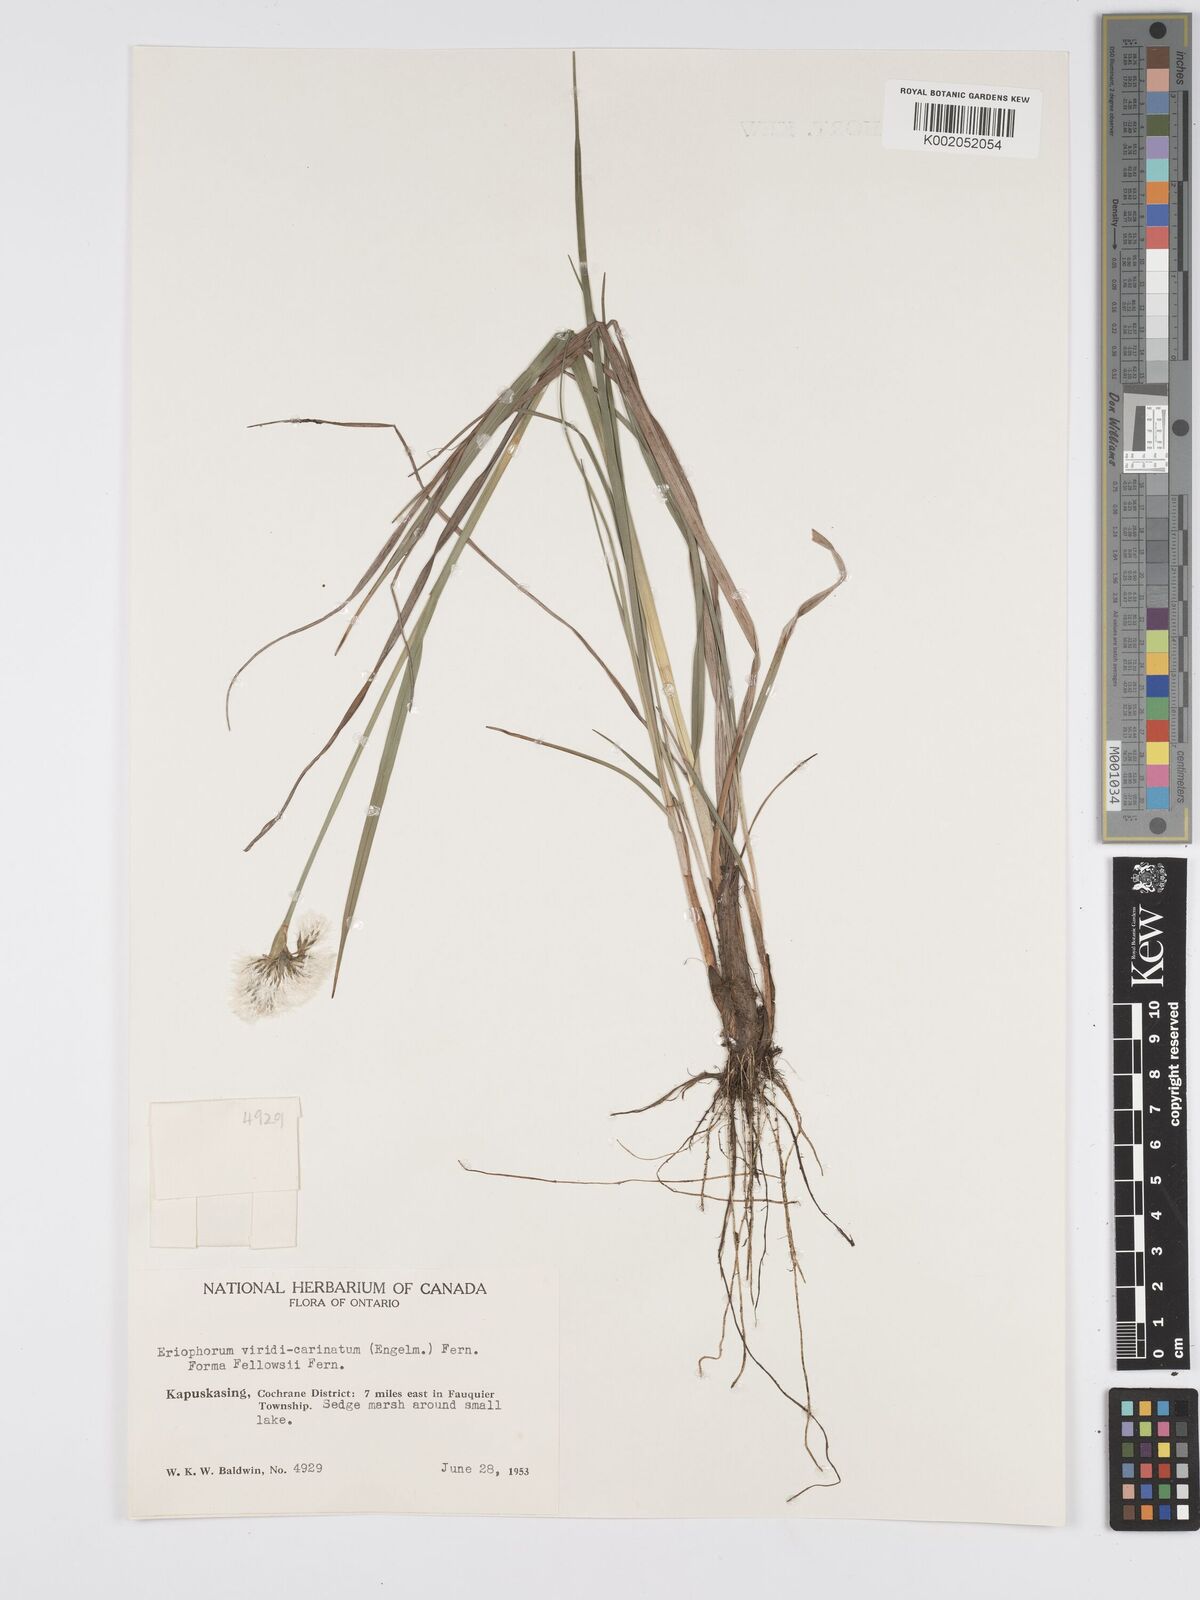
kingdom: Plantae
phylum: Tracheophyta
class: Liliopsida
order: Poales
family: Cyperaceae
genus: Eriophorum
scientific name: Eriophorum viridicarinatum
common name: Green-keeled cottongrass
